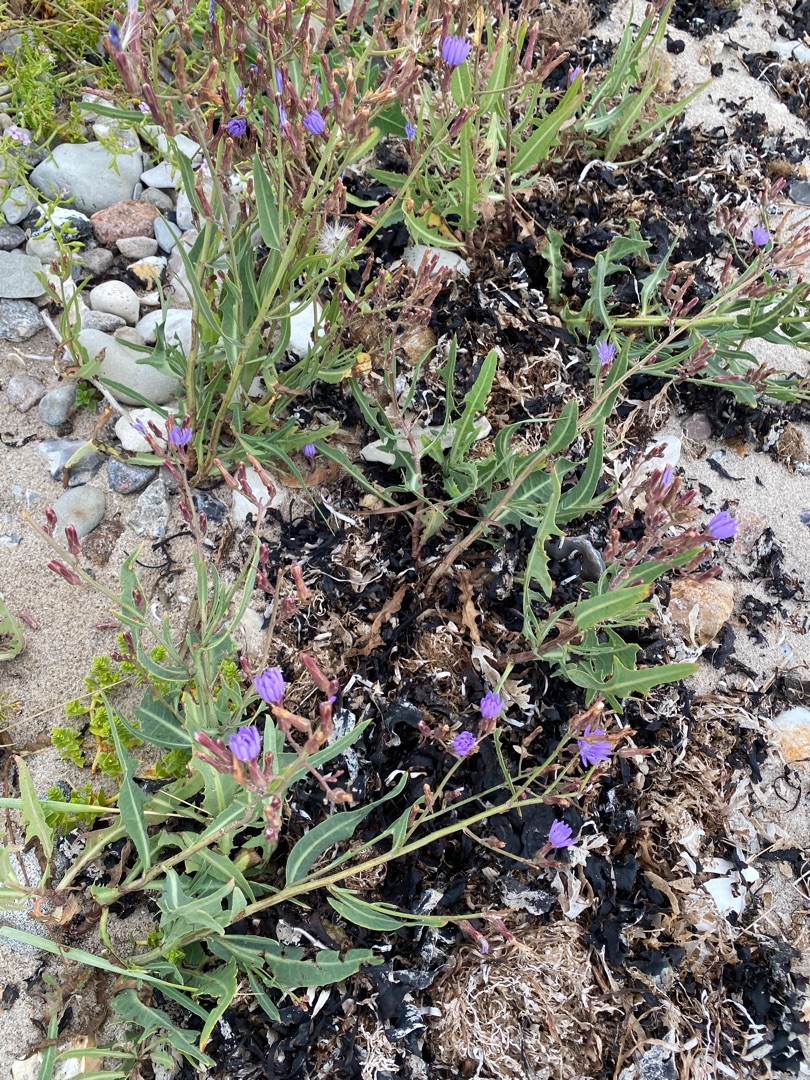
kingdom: Plantae
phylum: Tracheophyta
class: Magnoliopsida
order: Asterales
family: Asteraceae
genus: Lactuca
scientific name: Lactuca tatarica
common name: Strand-salat
